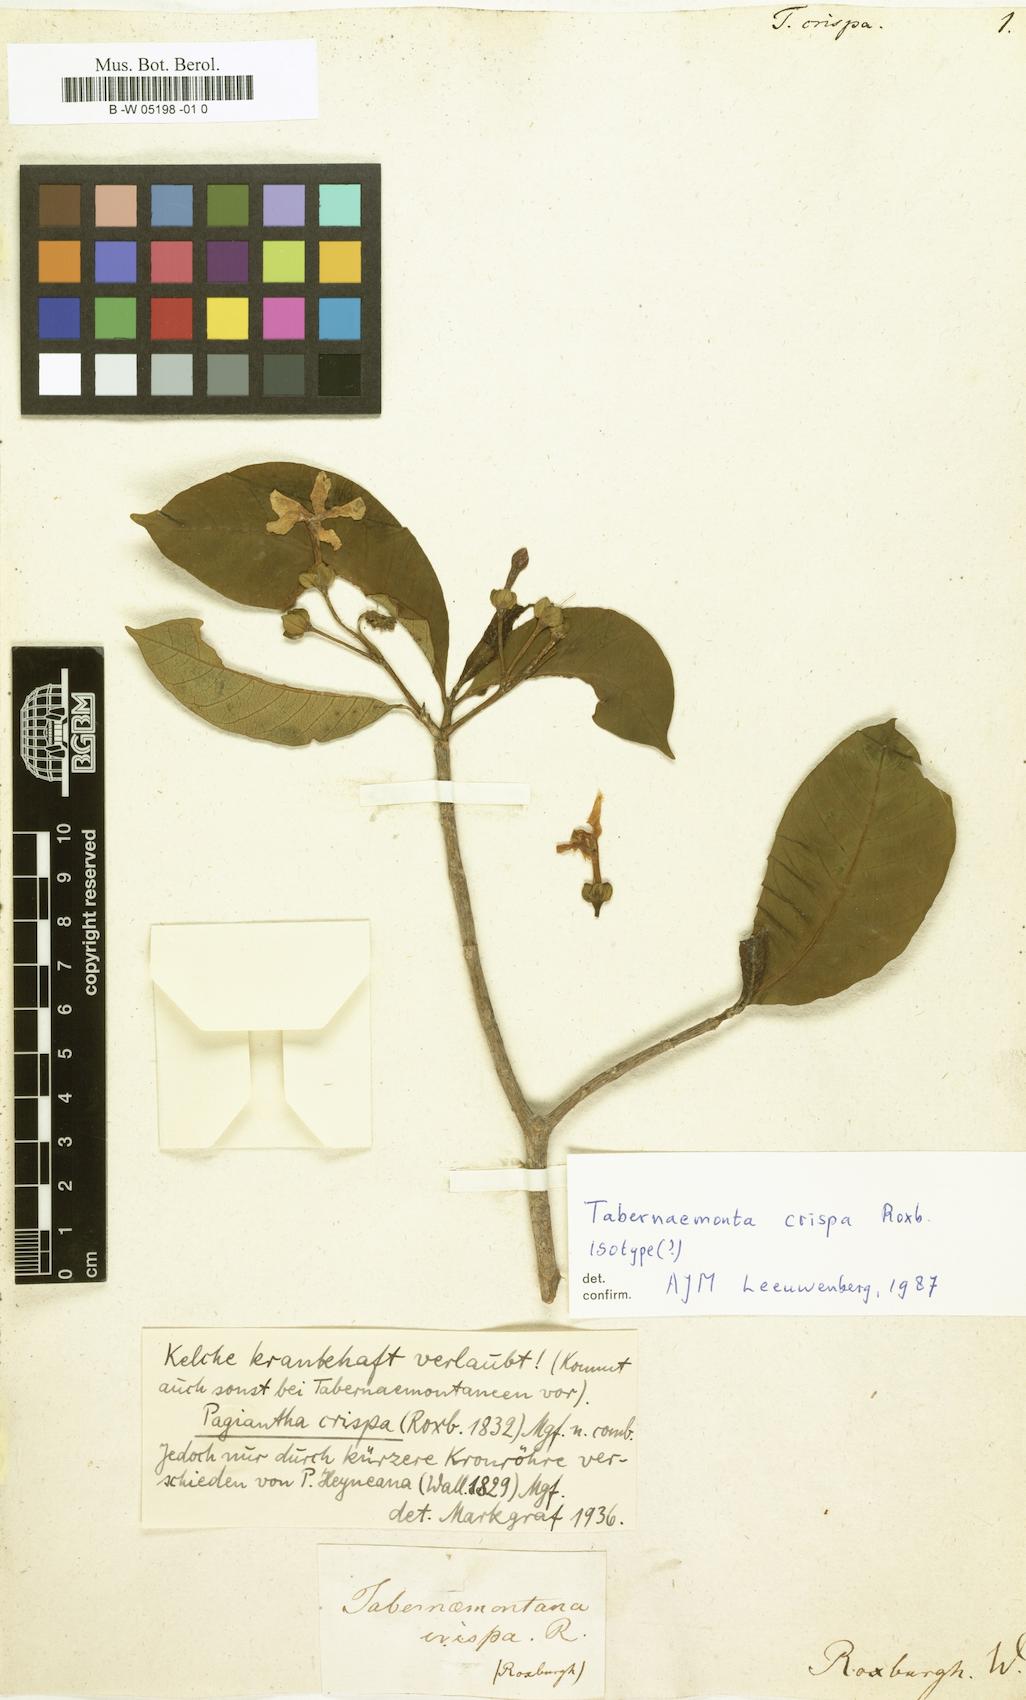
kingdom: Plantae
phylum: Tracheophyta
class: Magnoliopsida
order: Gentianales
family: Apocynaceae
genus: Tabernaemontana
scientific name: Tabernaemontana alternifolia
